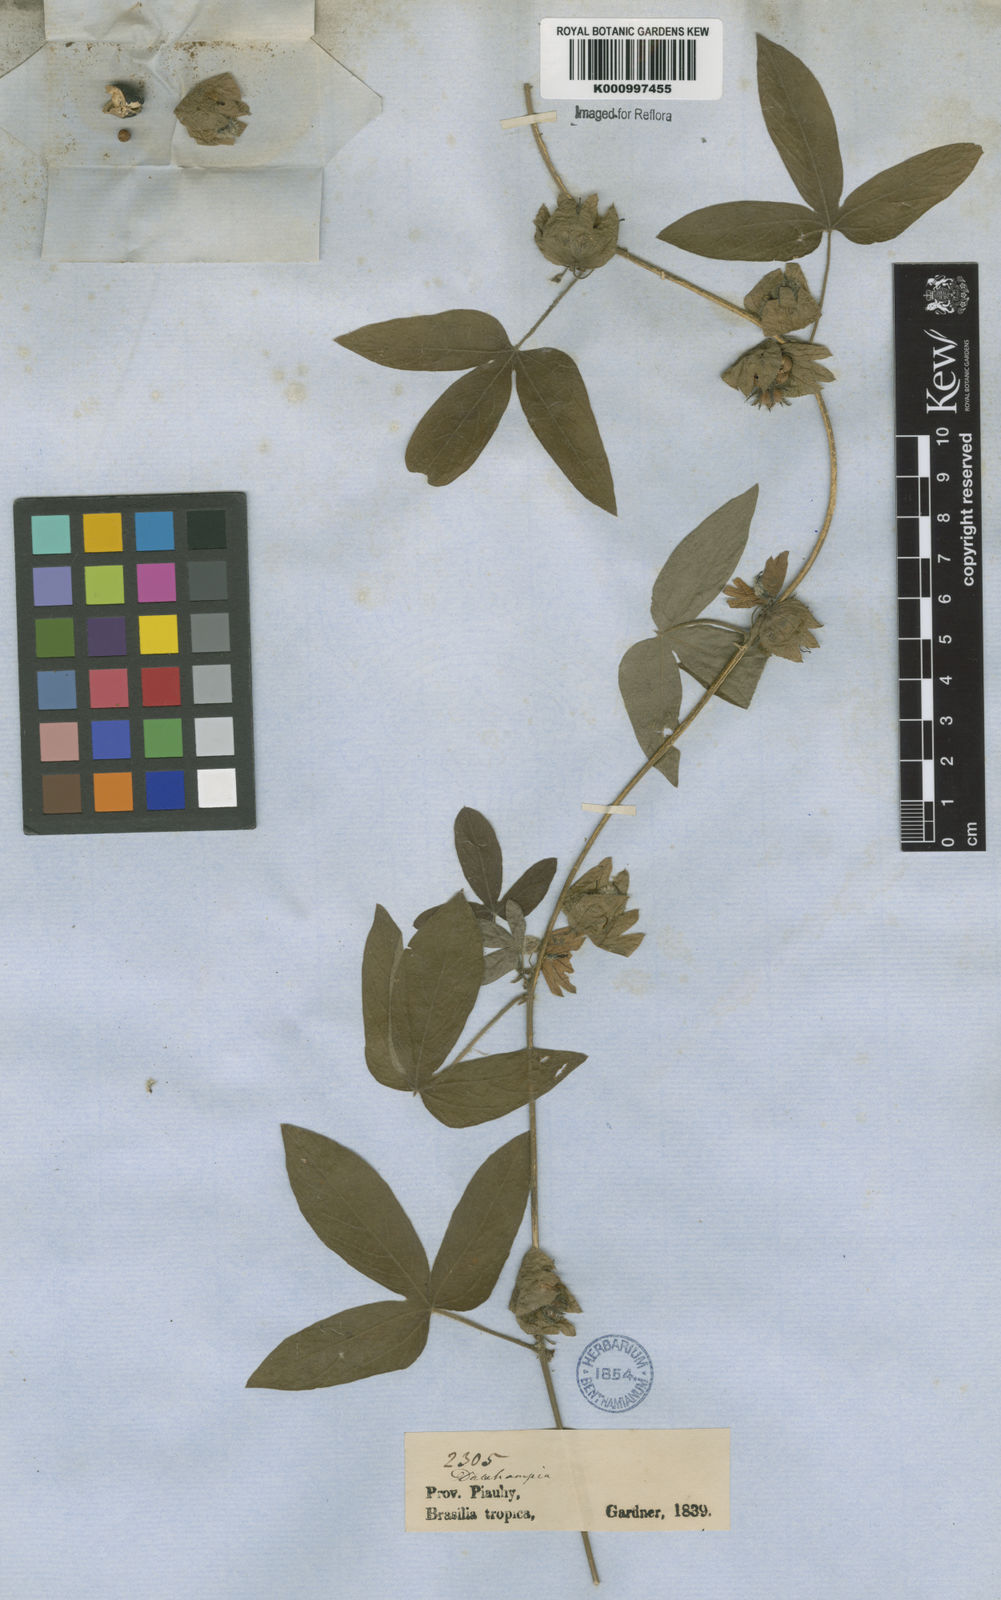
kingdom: Plantae
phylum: Tracheophyta
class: Magnoliopsida
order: Malpighiales
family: Euphorbiaceae
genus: Dalechampia
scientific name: Dalechampia scandens
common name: Spurgecreeper
